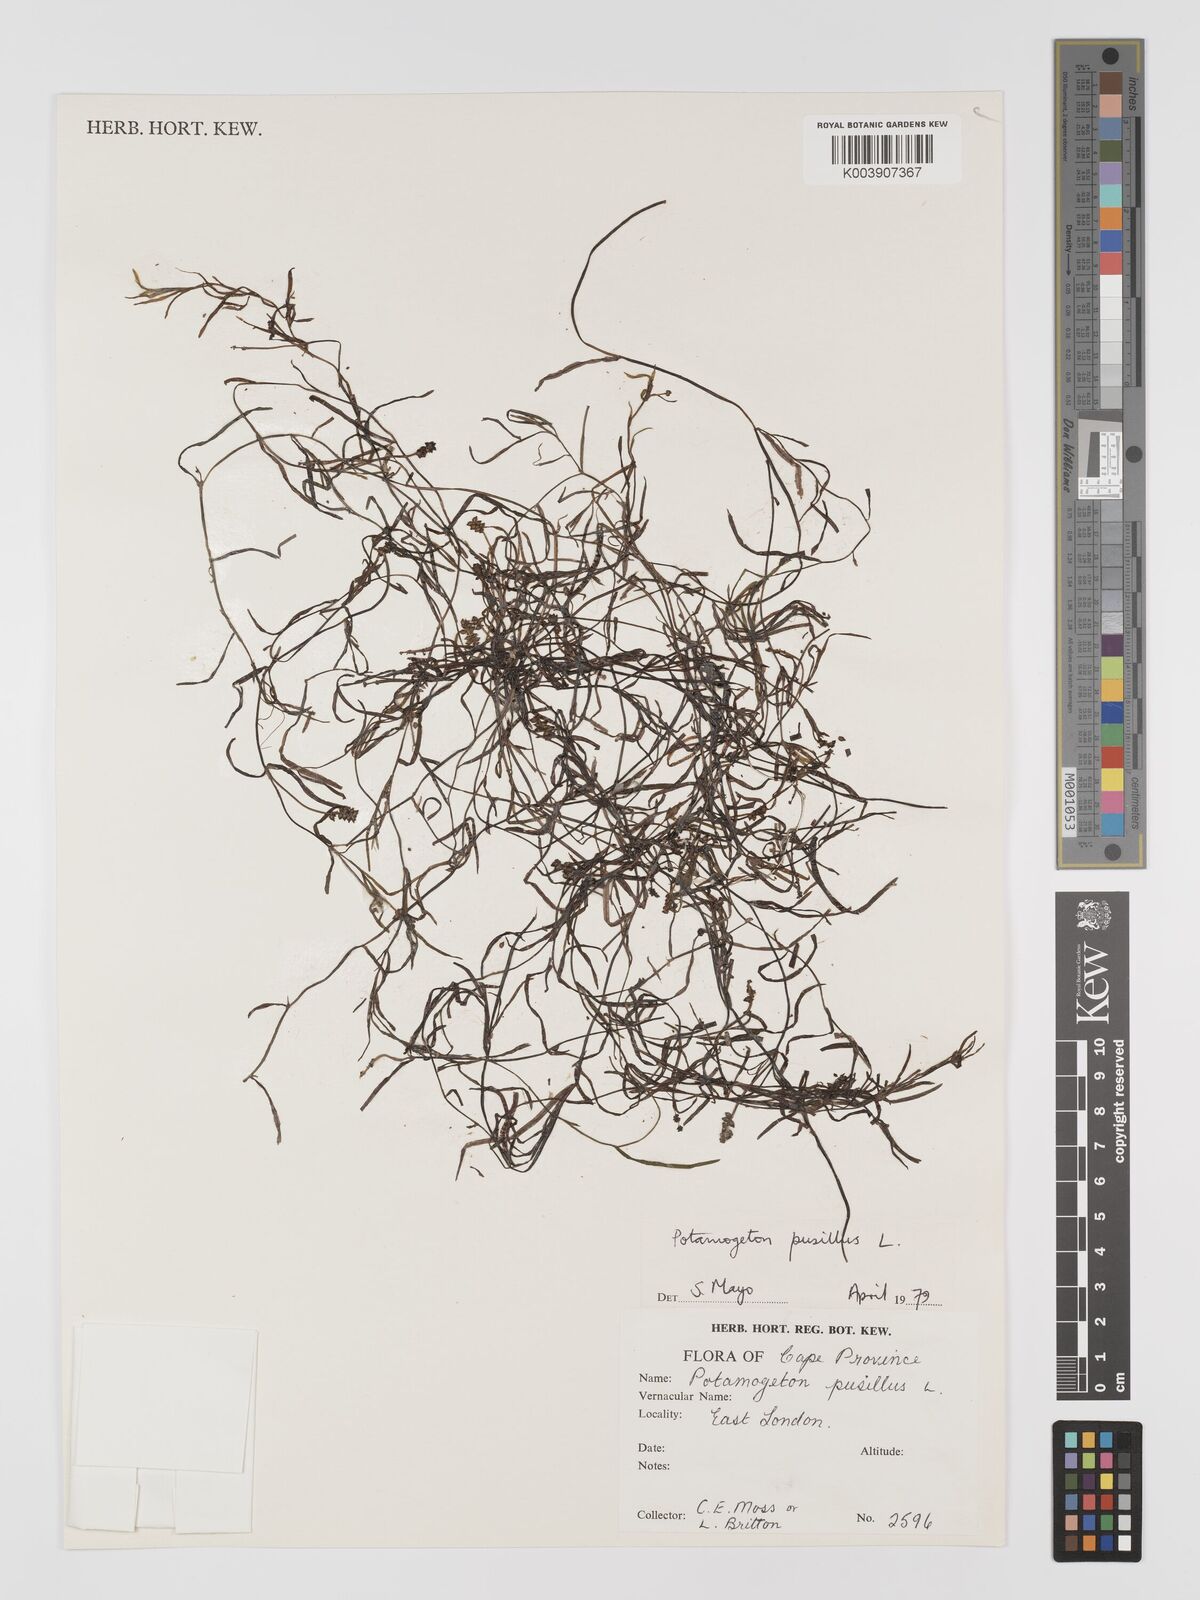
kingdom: Plantae
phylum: Tracheophyta
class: Liliopsida
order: Alismatales
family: Potamogetonaceae
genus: Potamogeton
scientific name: Potamogeton pusillus
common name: Lesser pondweed
